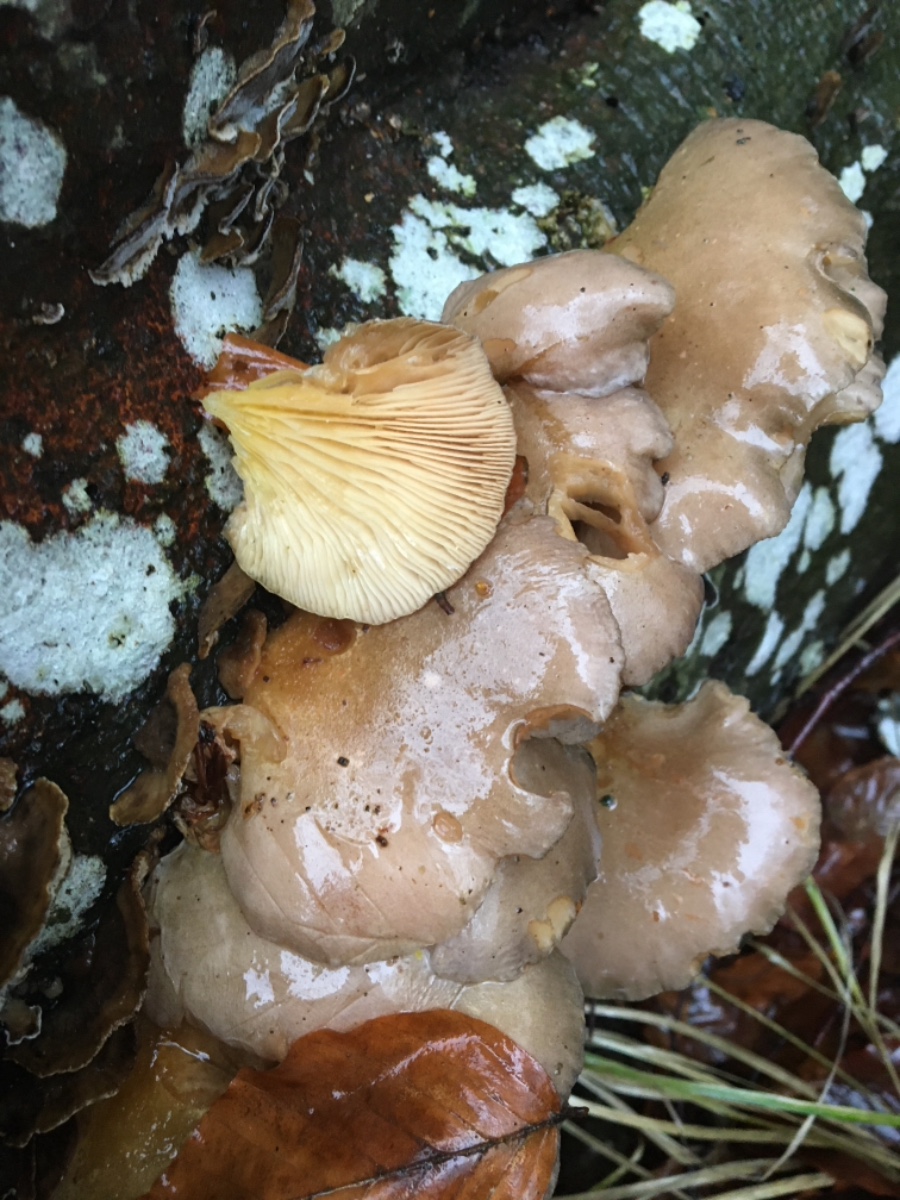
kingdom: Fungi
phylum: Basidiomycota
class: Agaricomycetes
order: Agaricales
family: Sarcomyxaceae
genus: Sarcomyxa
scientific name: Sarcomyxa serotina
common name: gummihat
